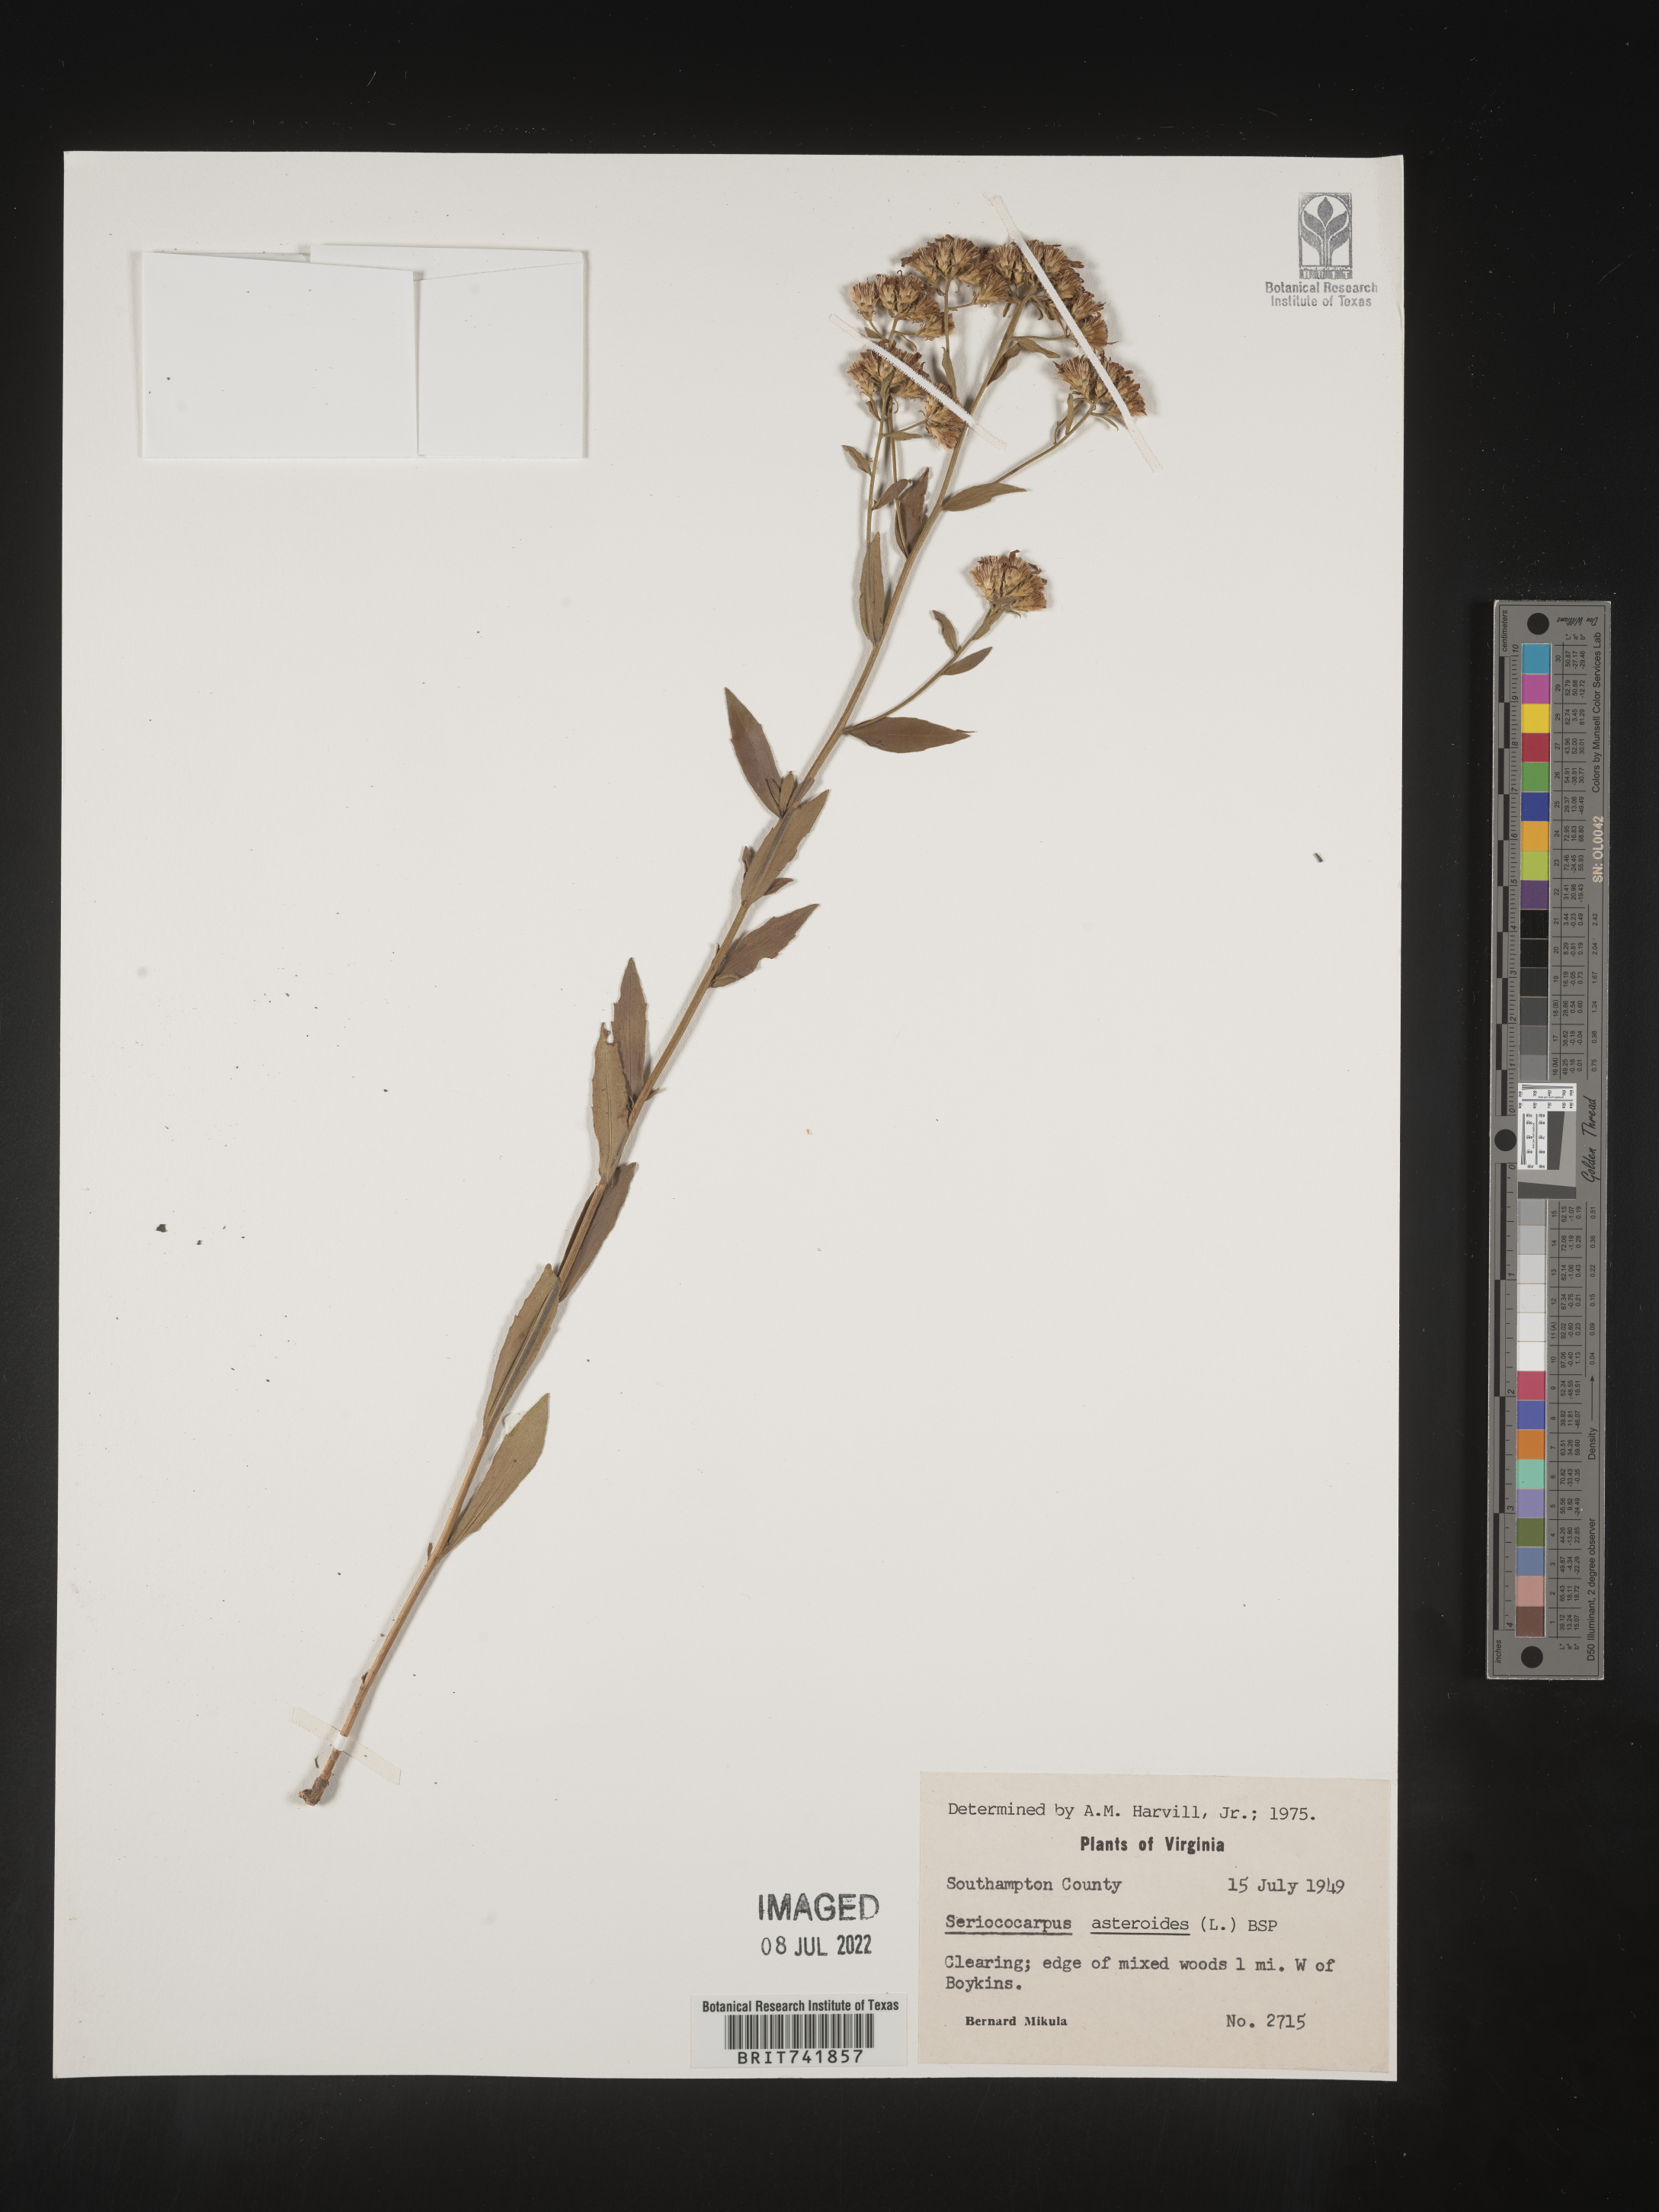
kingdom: Plantae
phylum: Tracheophyta
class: Magnoliopsida
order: Asterales
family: Asteraceae
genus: Sericocarpus
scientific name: Sericocarpus asteroides
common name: Toothed white-top aster
